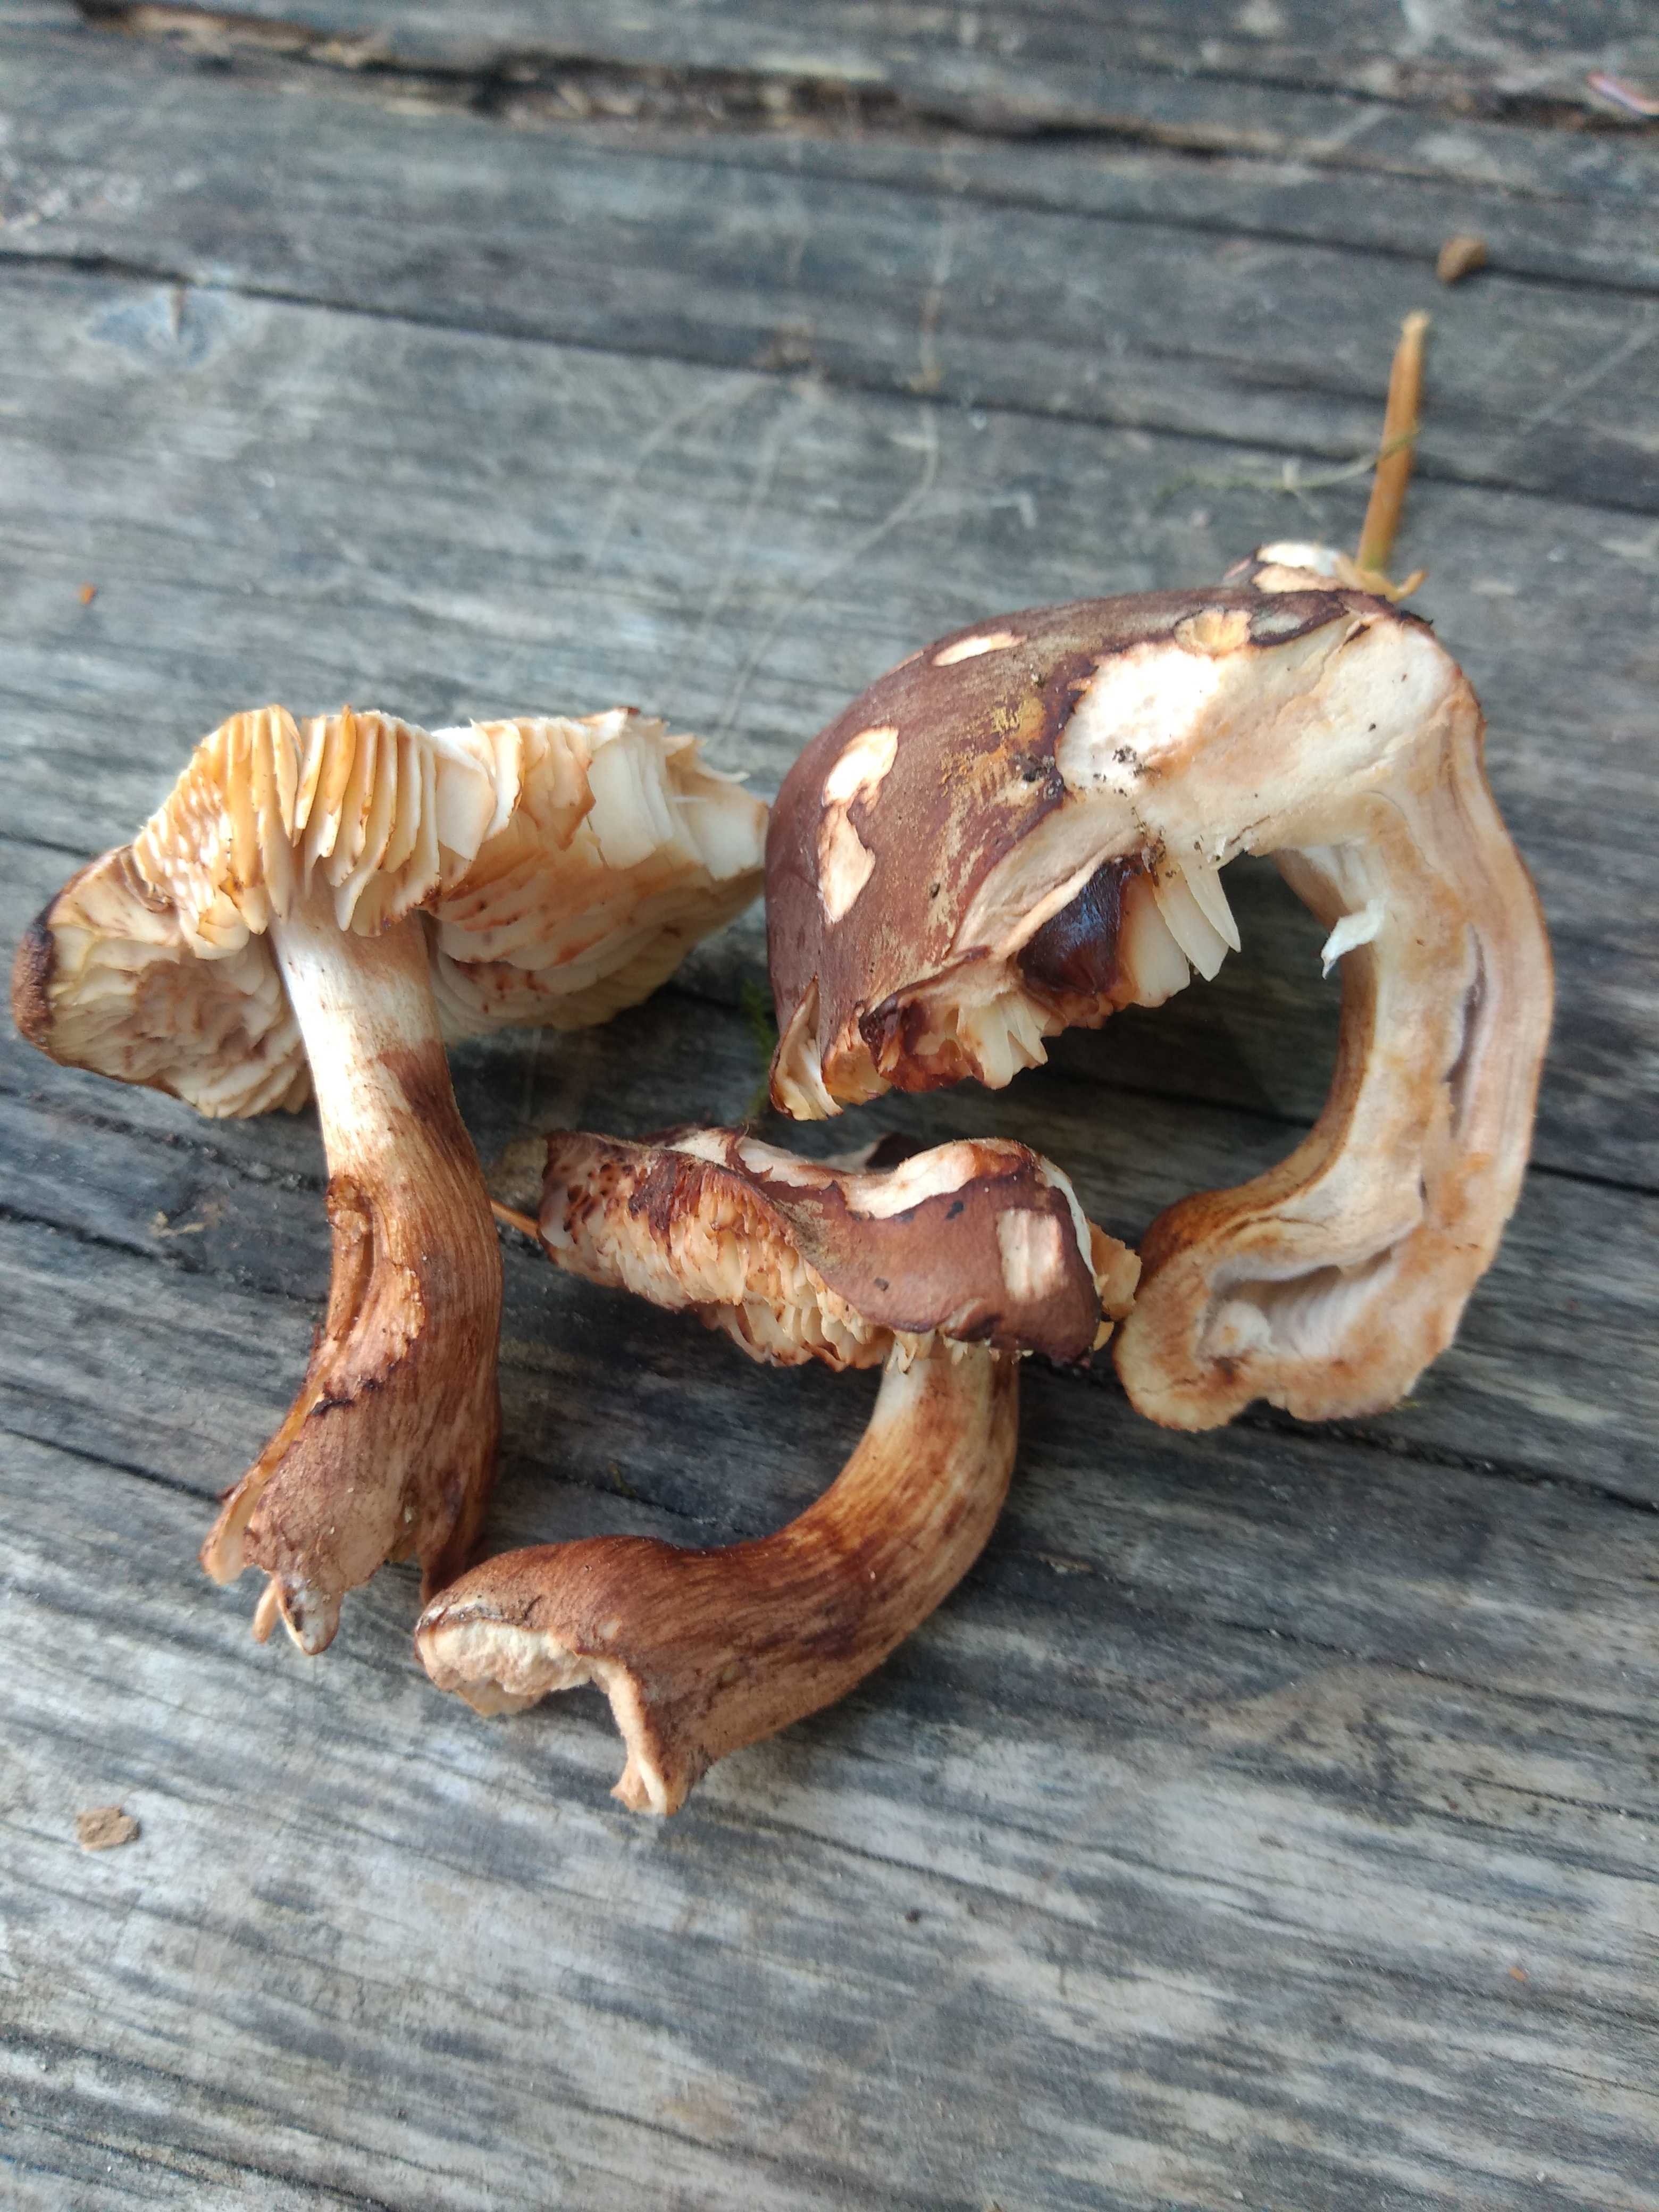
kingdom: Fungi
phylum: Basidiomycota
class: Agaricomycetes
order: Agaricales
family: Tricholomataceae
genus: Tricholoma
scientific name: Tricholoma ustale
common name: sveden ridderhat
